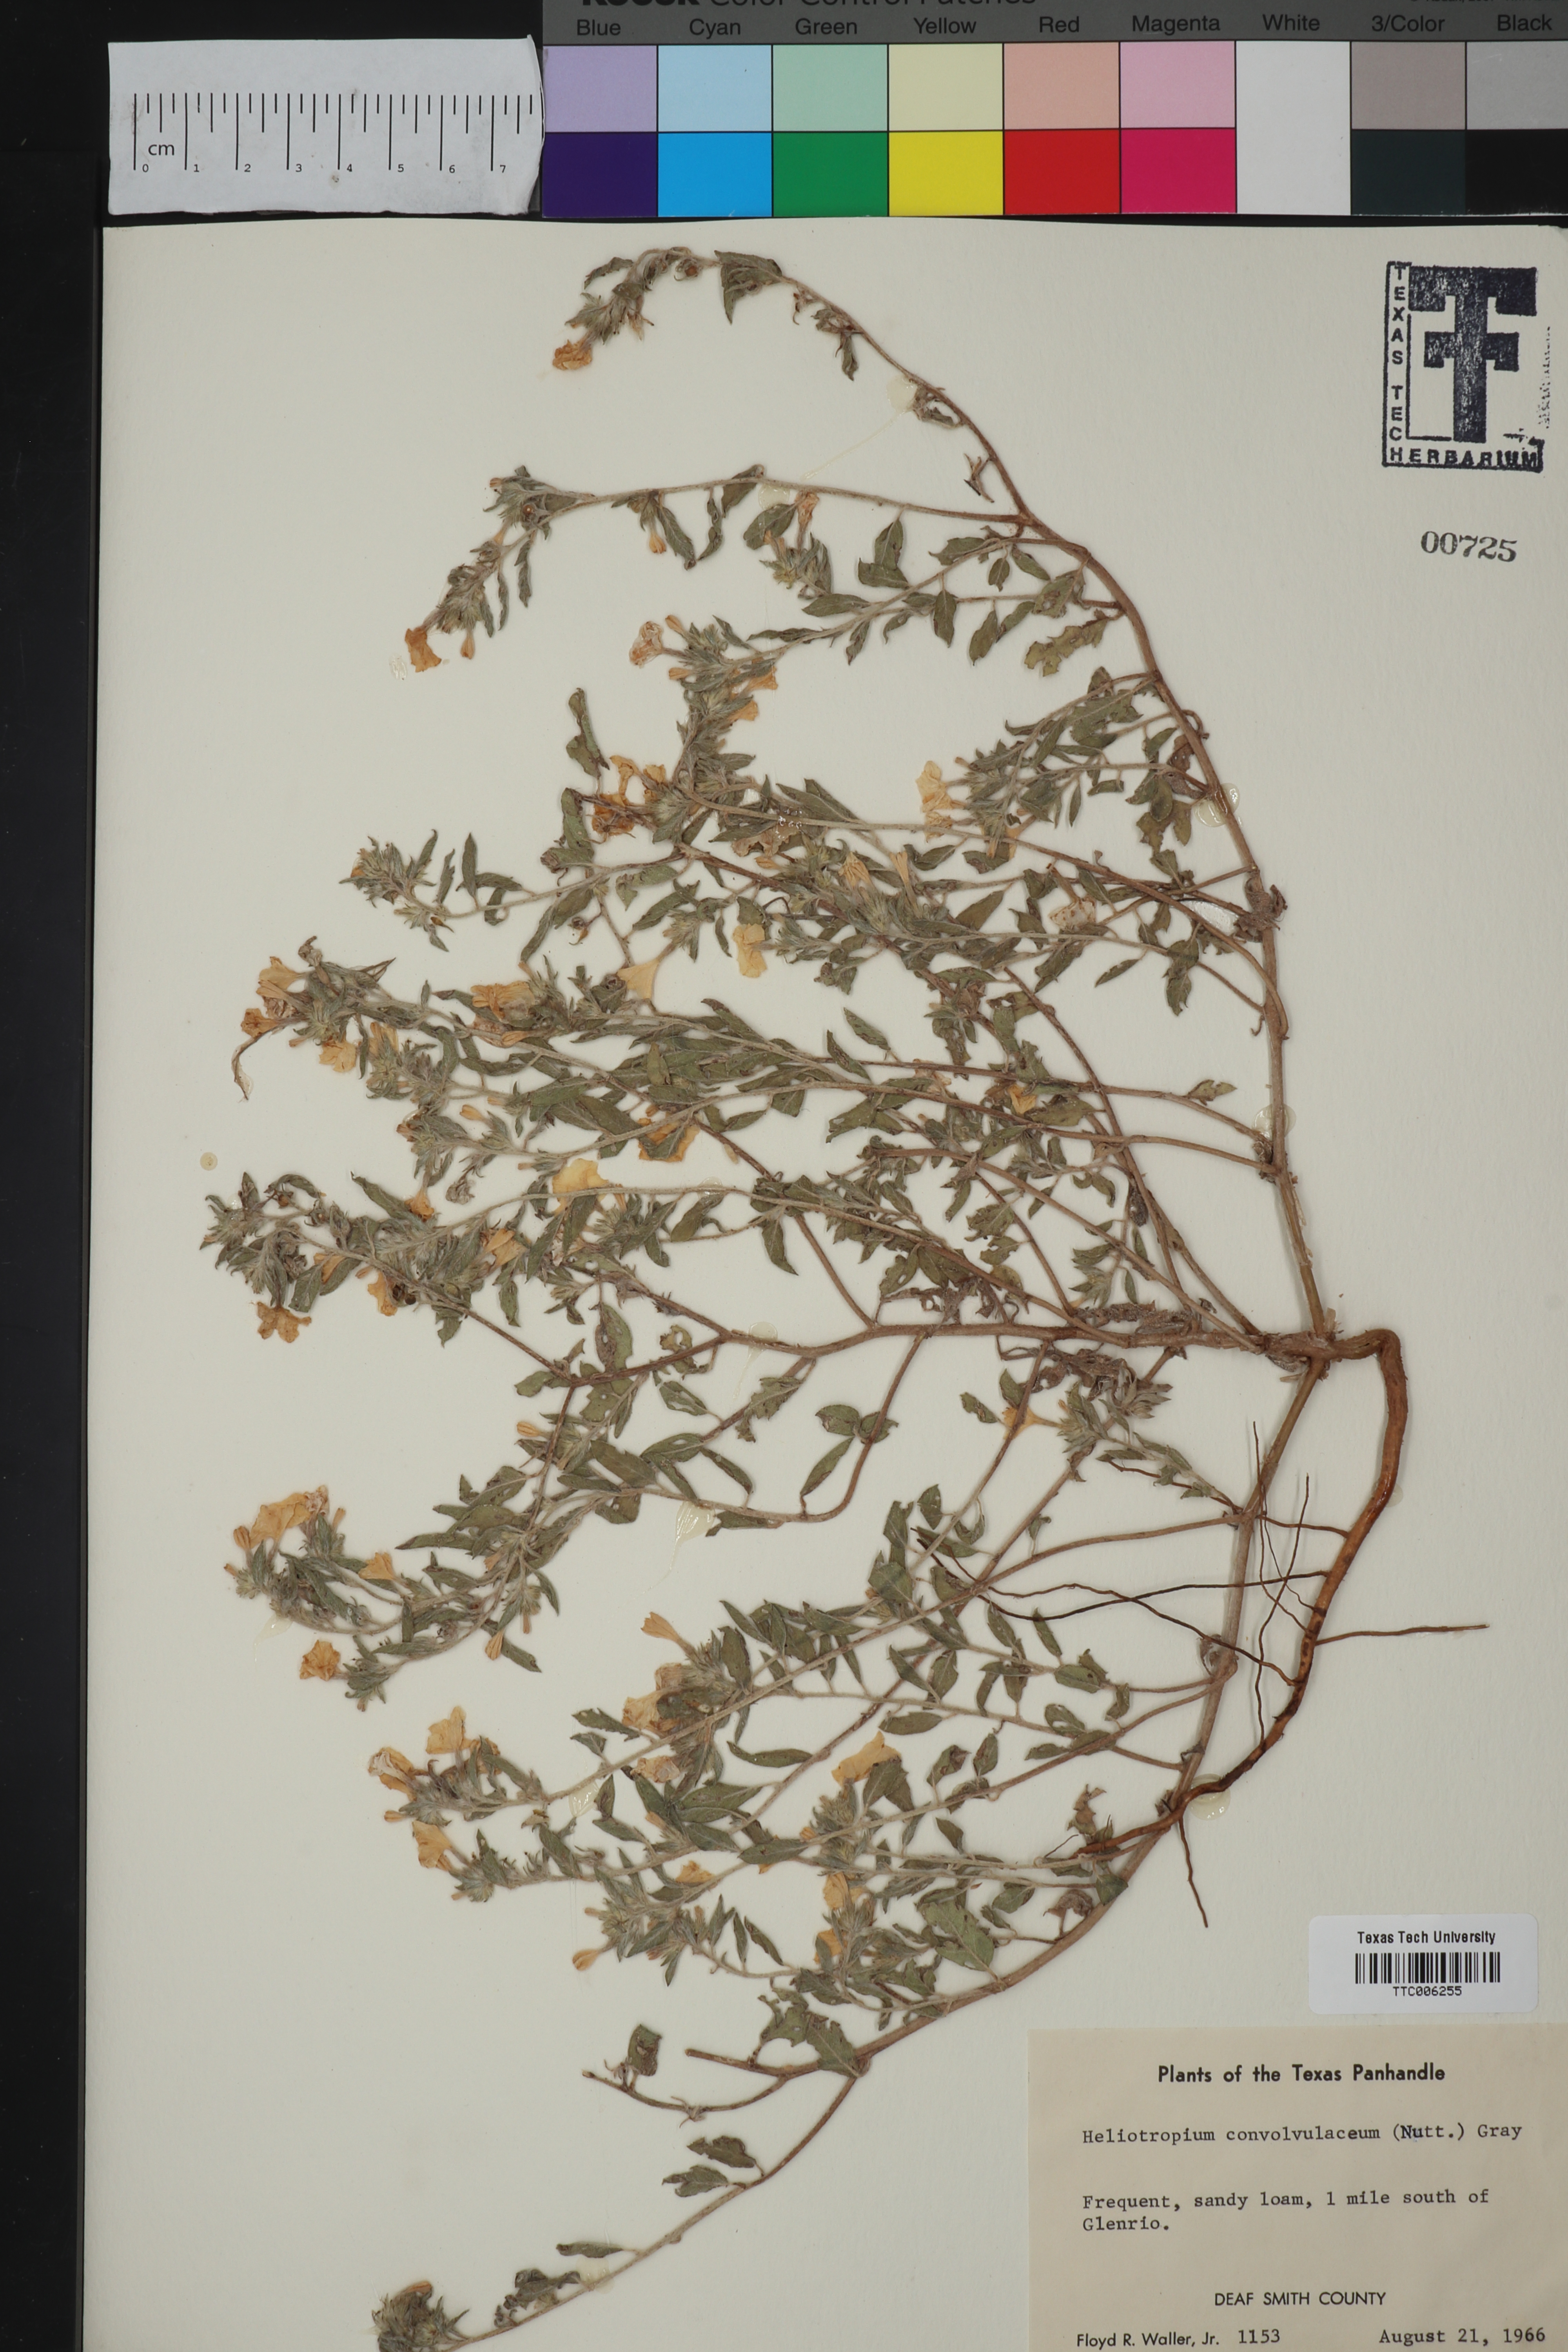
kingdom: Plantae
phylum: Tracheophyta
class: Magnoliopsida
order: Boraginales
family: Heliotropiaceae
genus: Euploca
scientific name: Euploca convolvulacea
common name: Bindweed heliotrope
